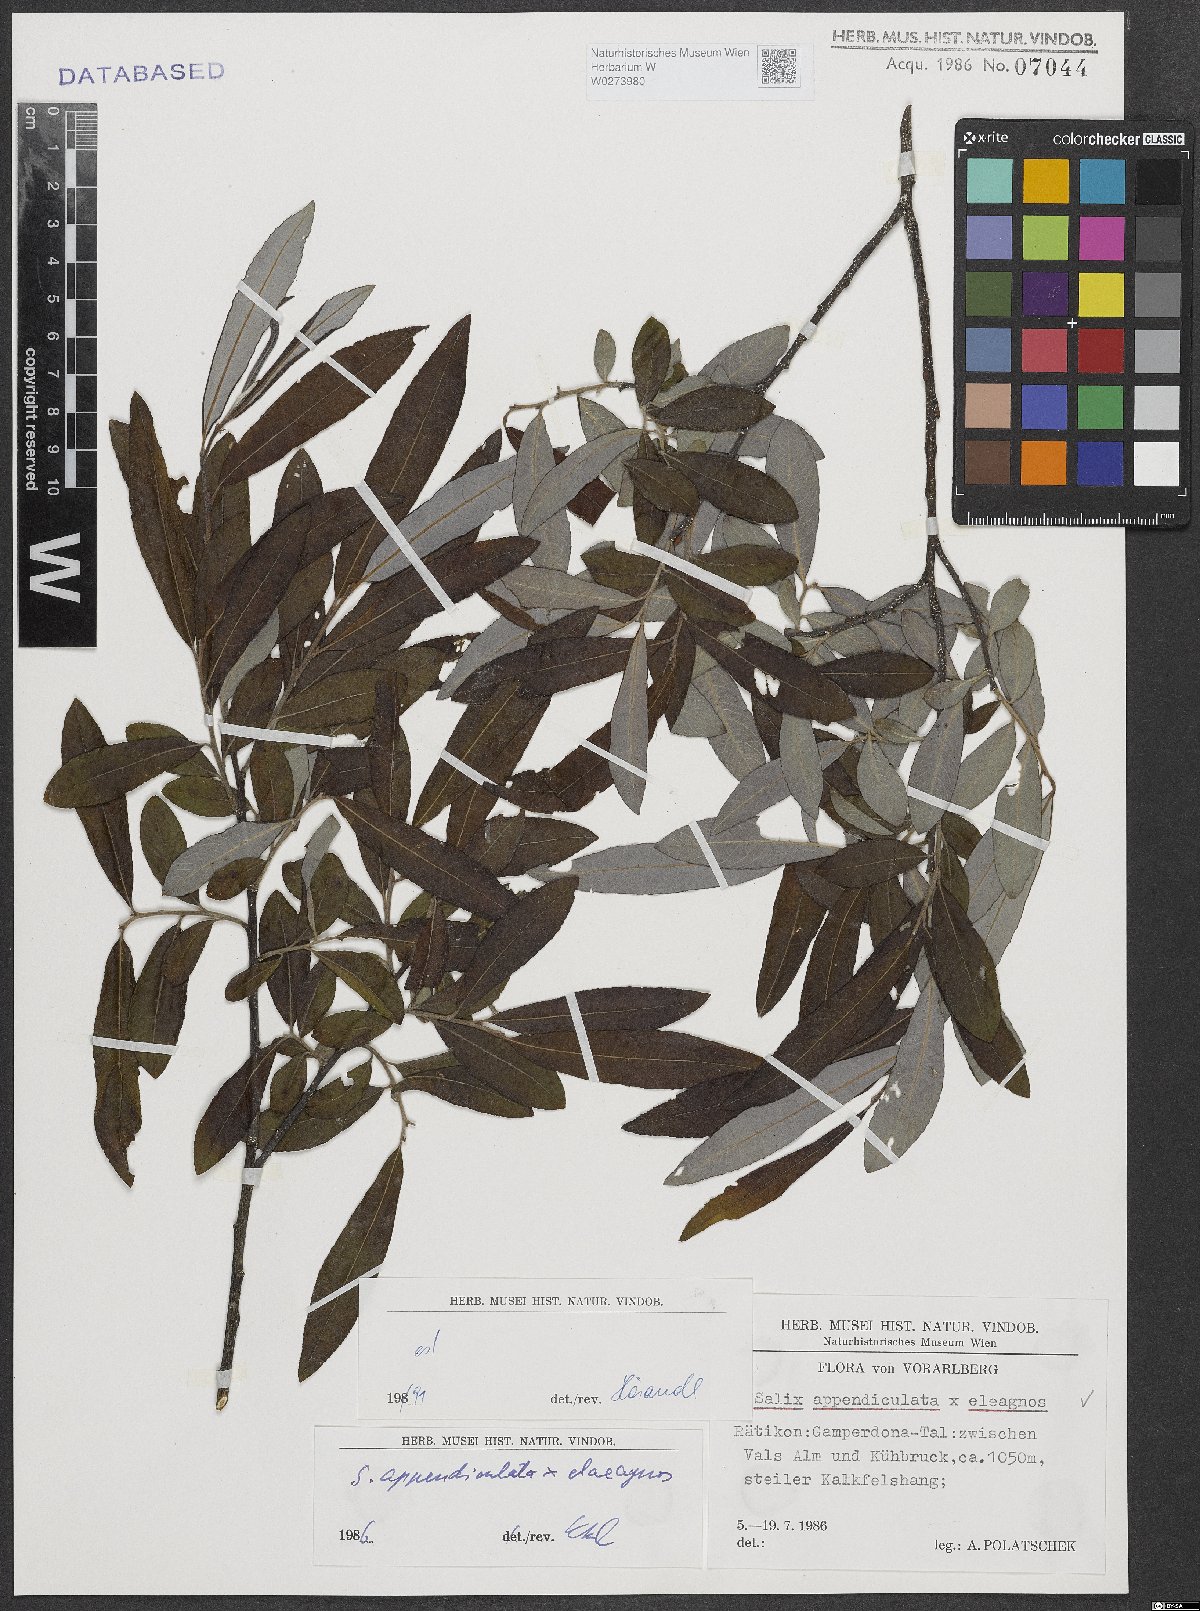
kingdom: Plantae
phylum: Tracheophyta
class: Magnoliopsida
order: Malpighiales
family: Salicaceae
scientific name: Salicaceae
